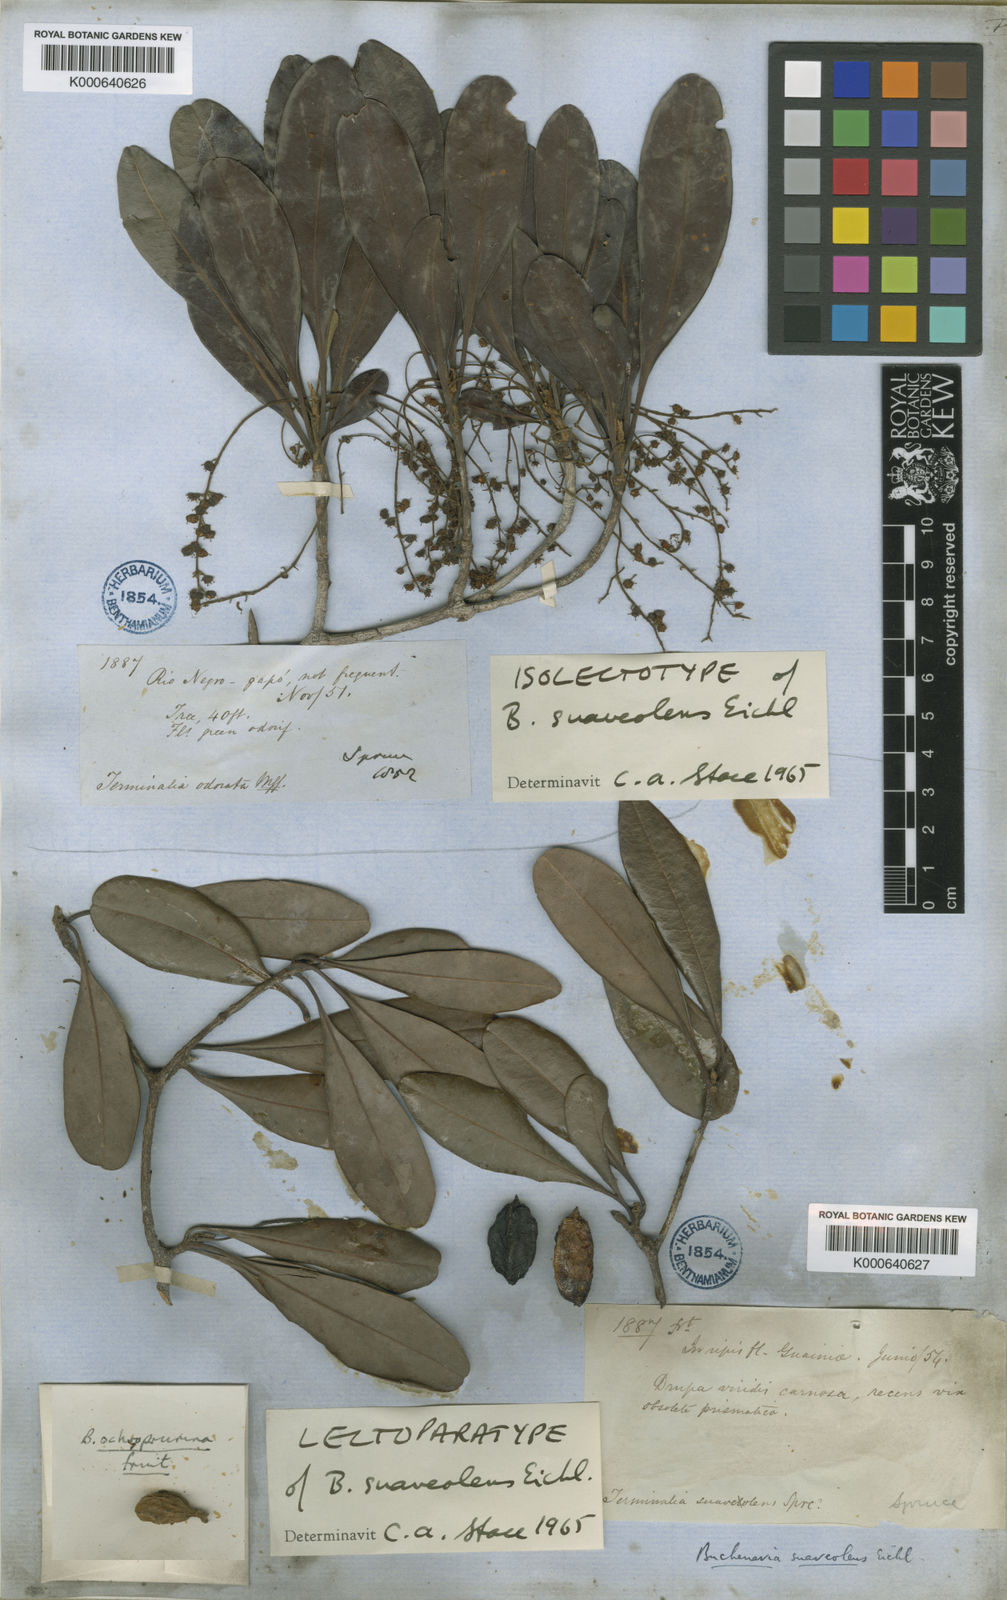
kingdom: Plantae
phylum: Tracheophyta
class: Magnoliopsida
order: Myrtales
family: Combretaceae
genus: Terminalia
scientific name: Terminalia suaveolens
